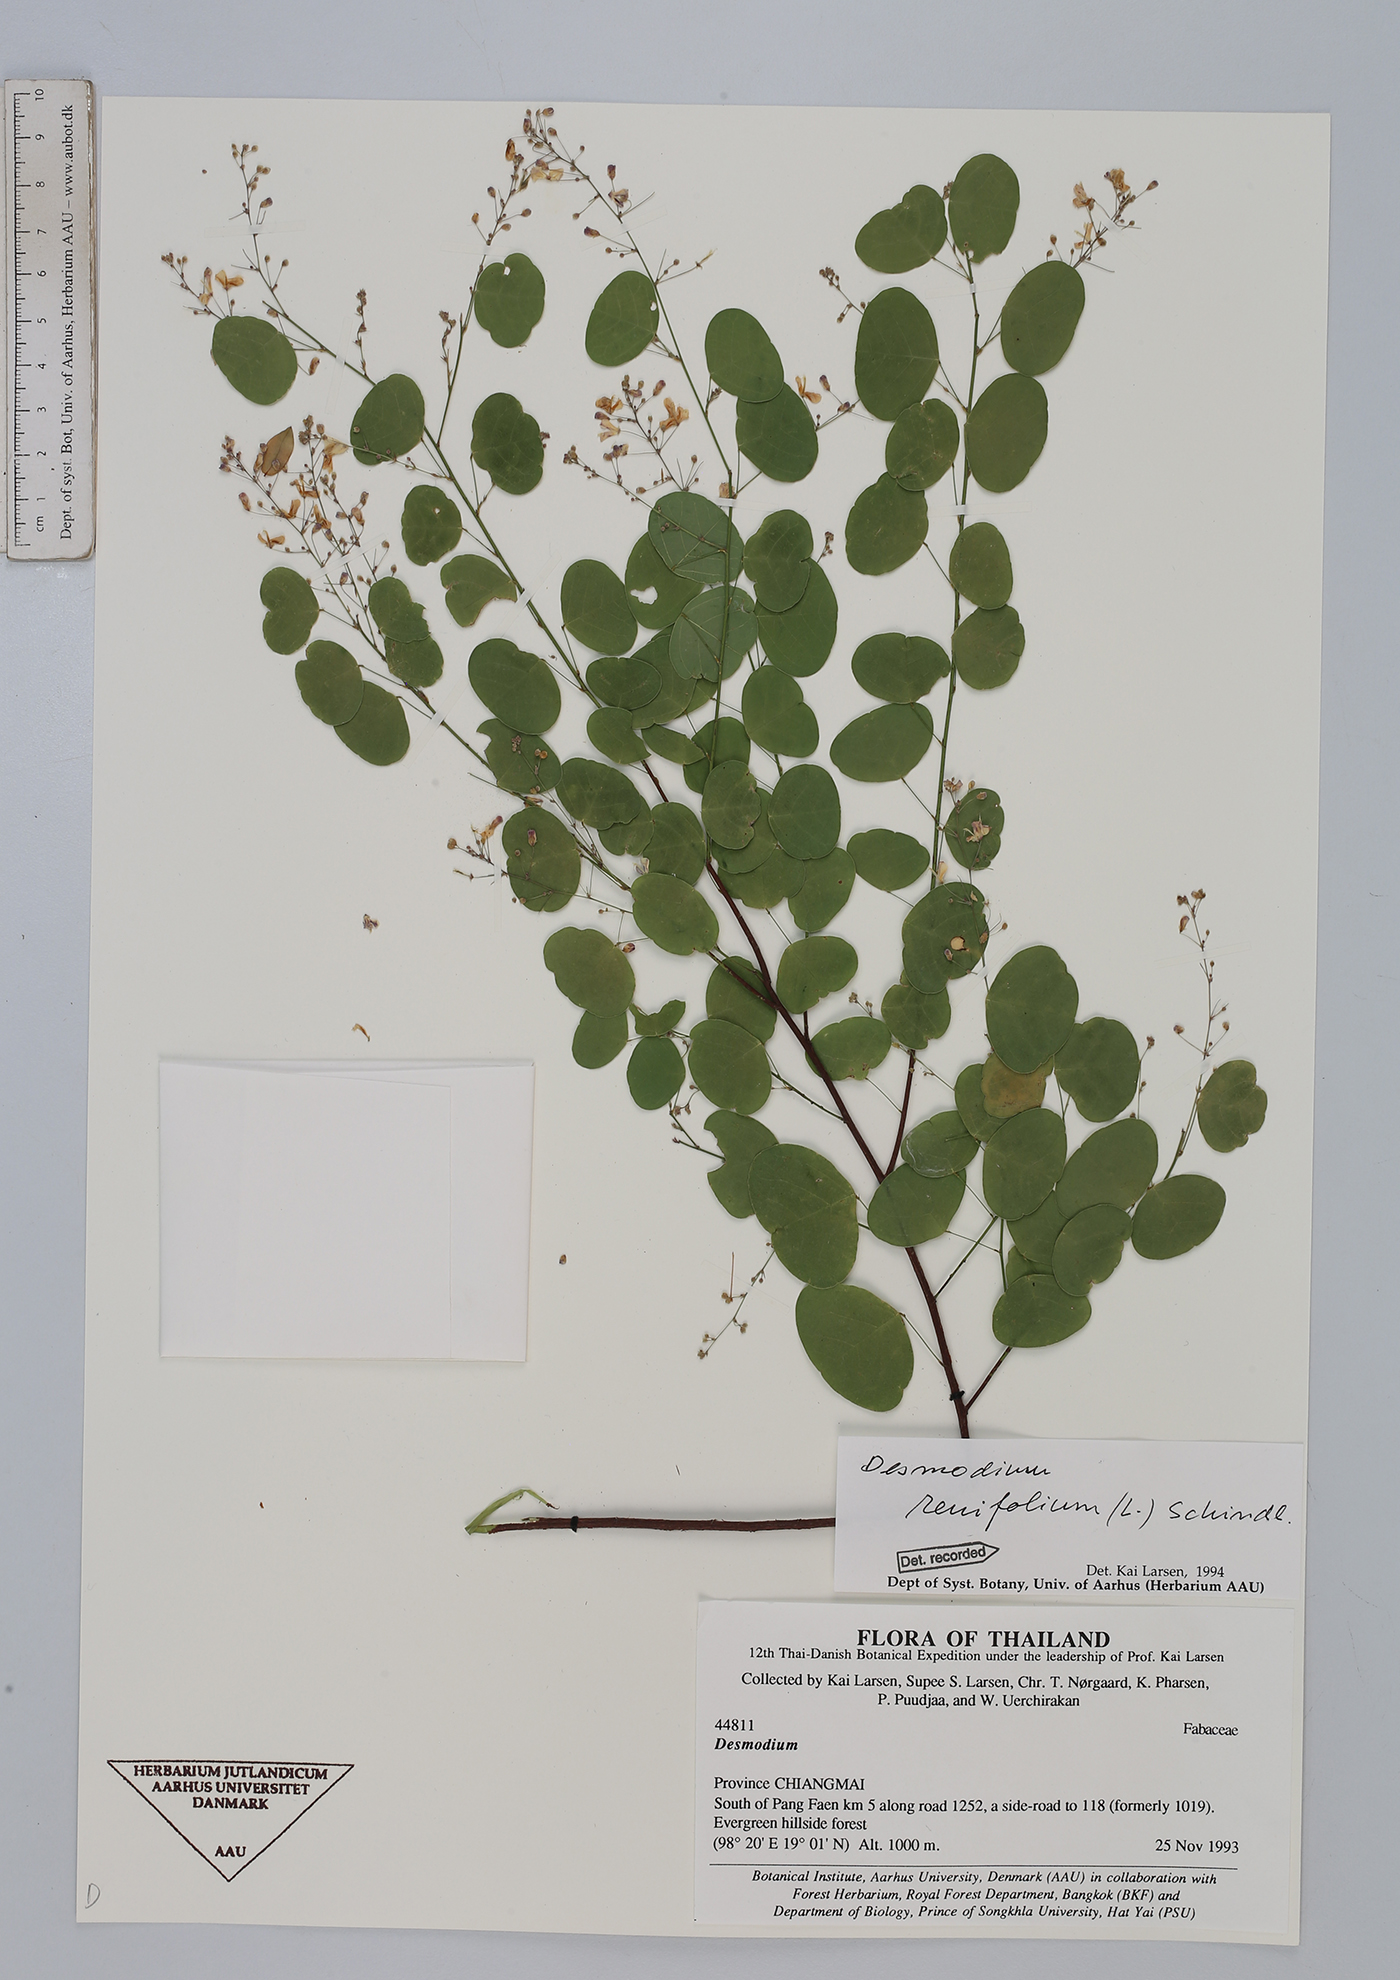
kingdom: Plantae
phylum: Tracheophyta
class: Magnoliopsida
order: Fabales
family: Fabaceae
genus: Huangtcia
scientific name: Huangtcia renifolia
